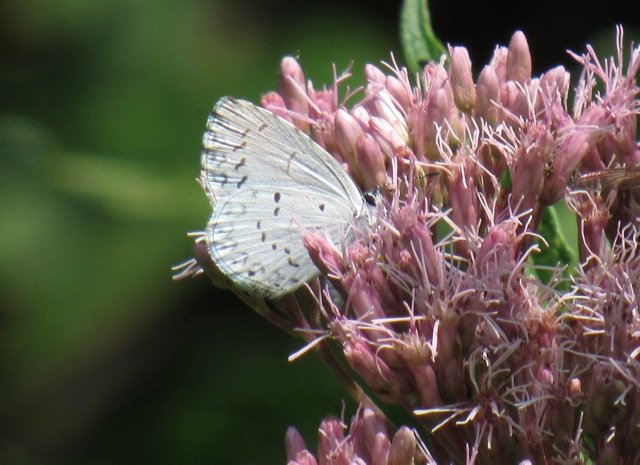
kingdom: Animalia
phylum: Arthropoda
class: Insecta
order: Lepidoptera
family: Lycaenidae
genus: Cyaniris
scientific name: Cyaniris neglecta
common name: Summer Azure
